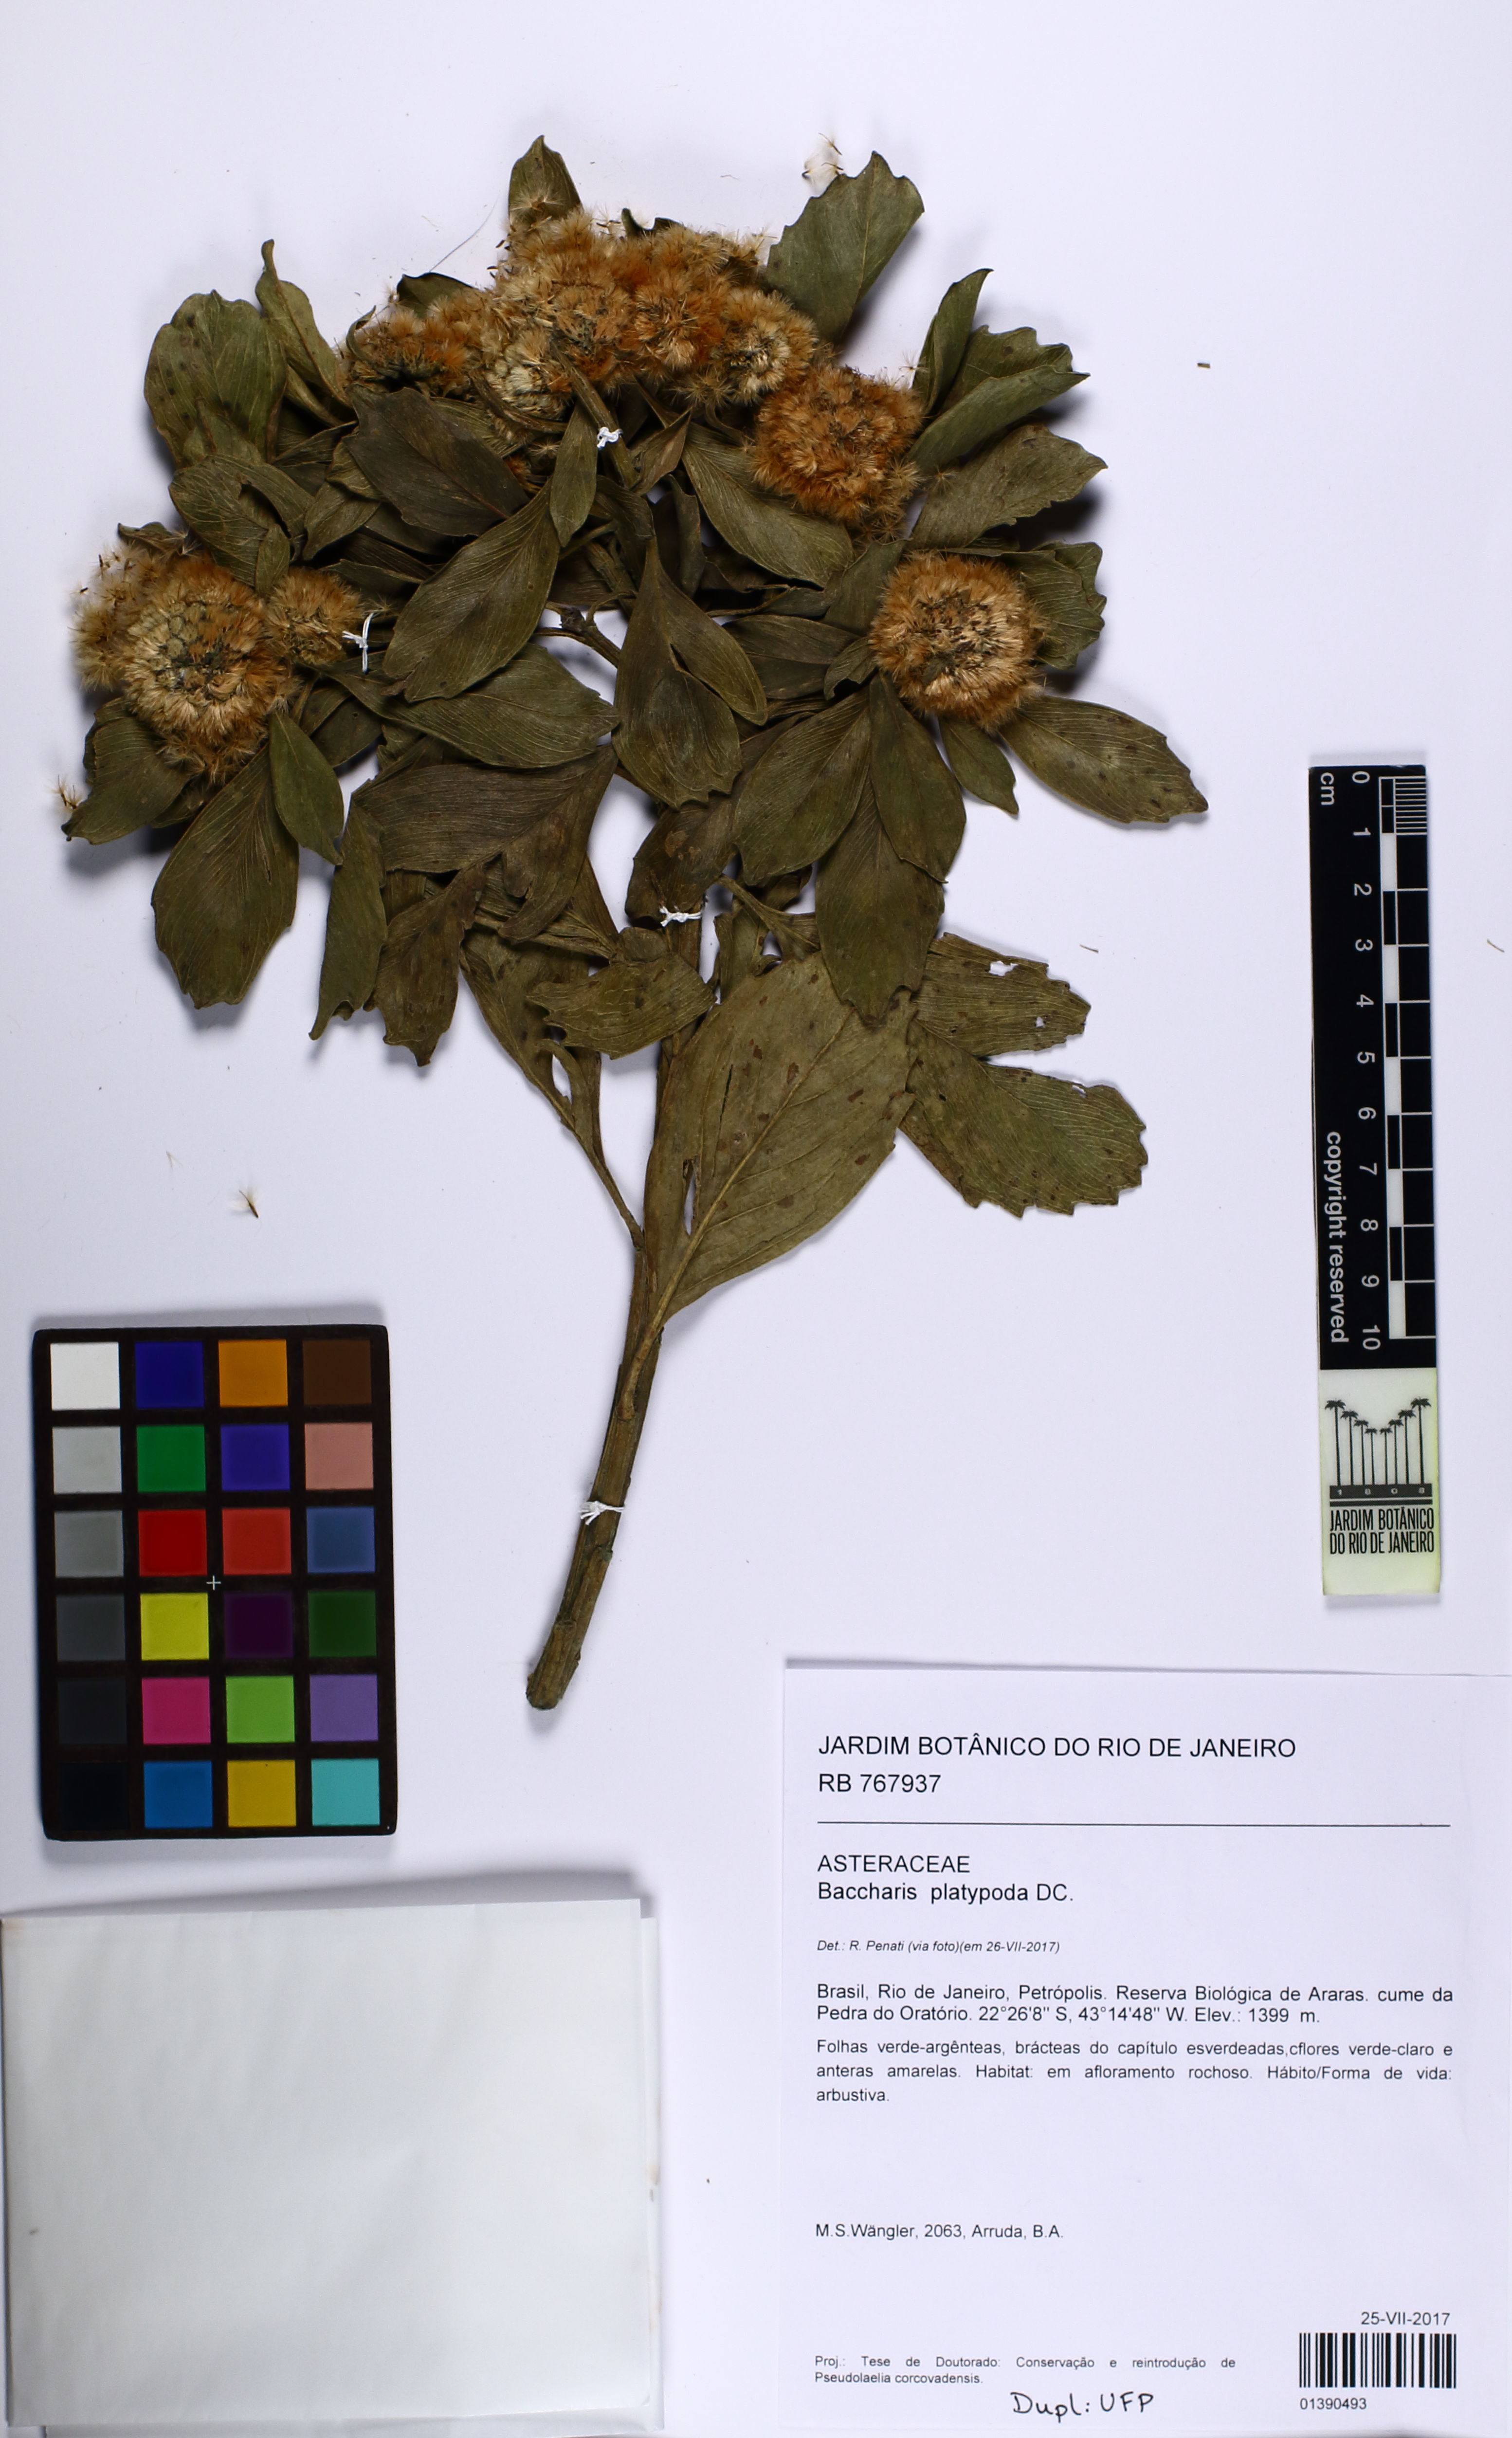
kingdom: Plantae
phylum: Tracheophyta
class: Magnoliopsida
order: Asterales
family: Asteraceae
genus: Baccharis
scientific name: Baccharis platypoda
